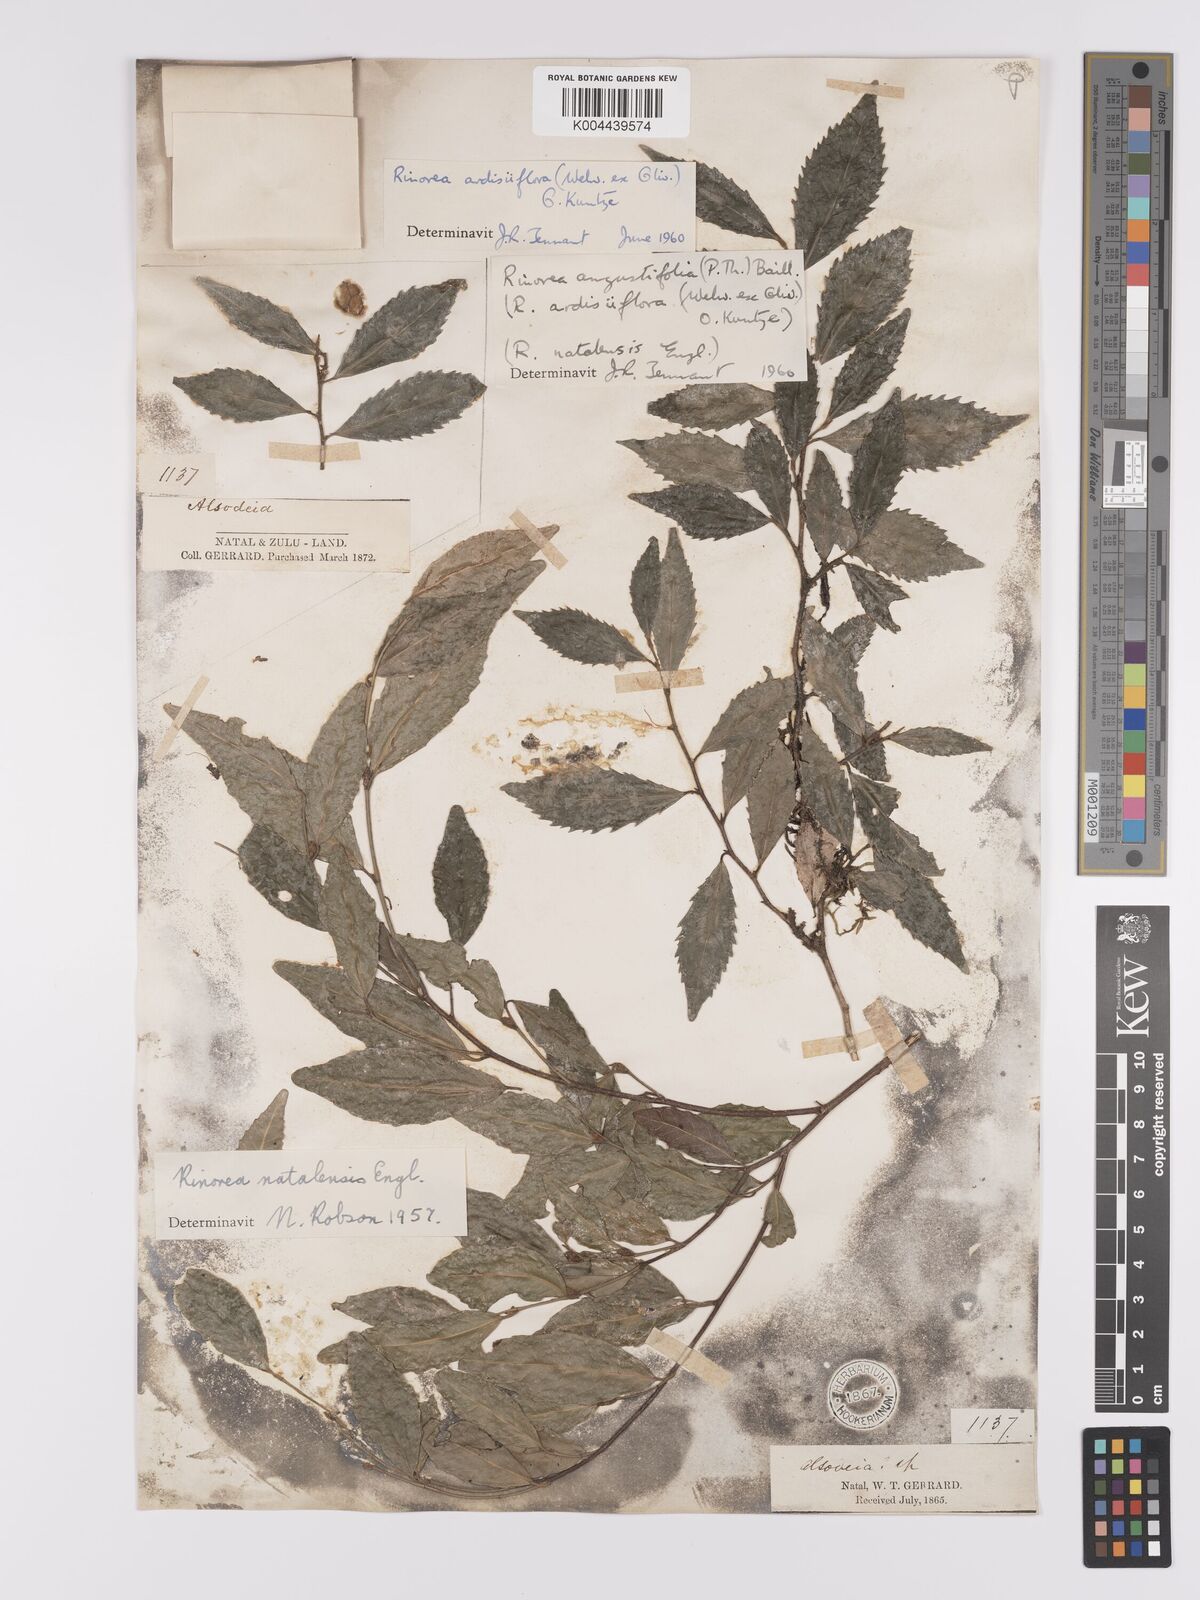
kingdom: Plantae
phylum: Tracheophyta
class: Magnoliopsida
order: Malpighiales
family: Violaceae
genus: Rinorea
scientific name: Rinorea angustifolia
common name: White violet-bush
